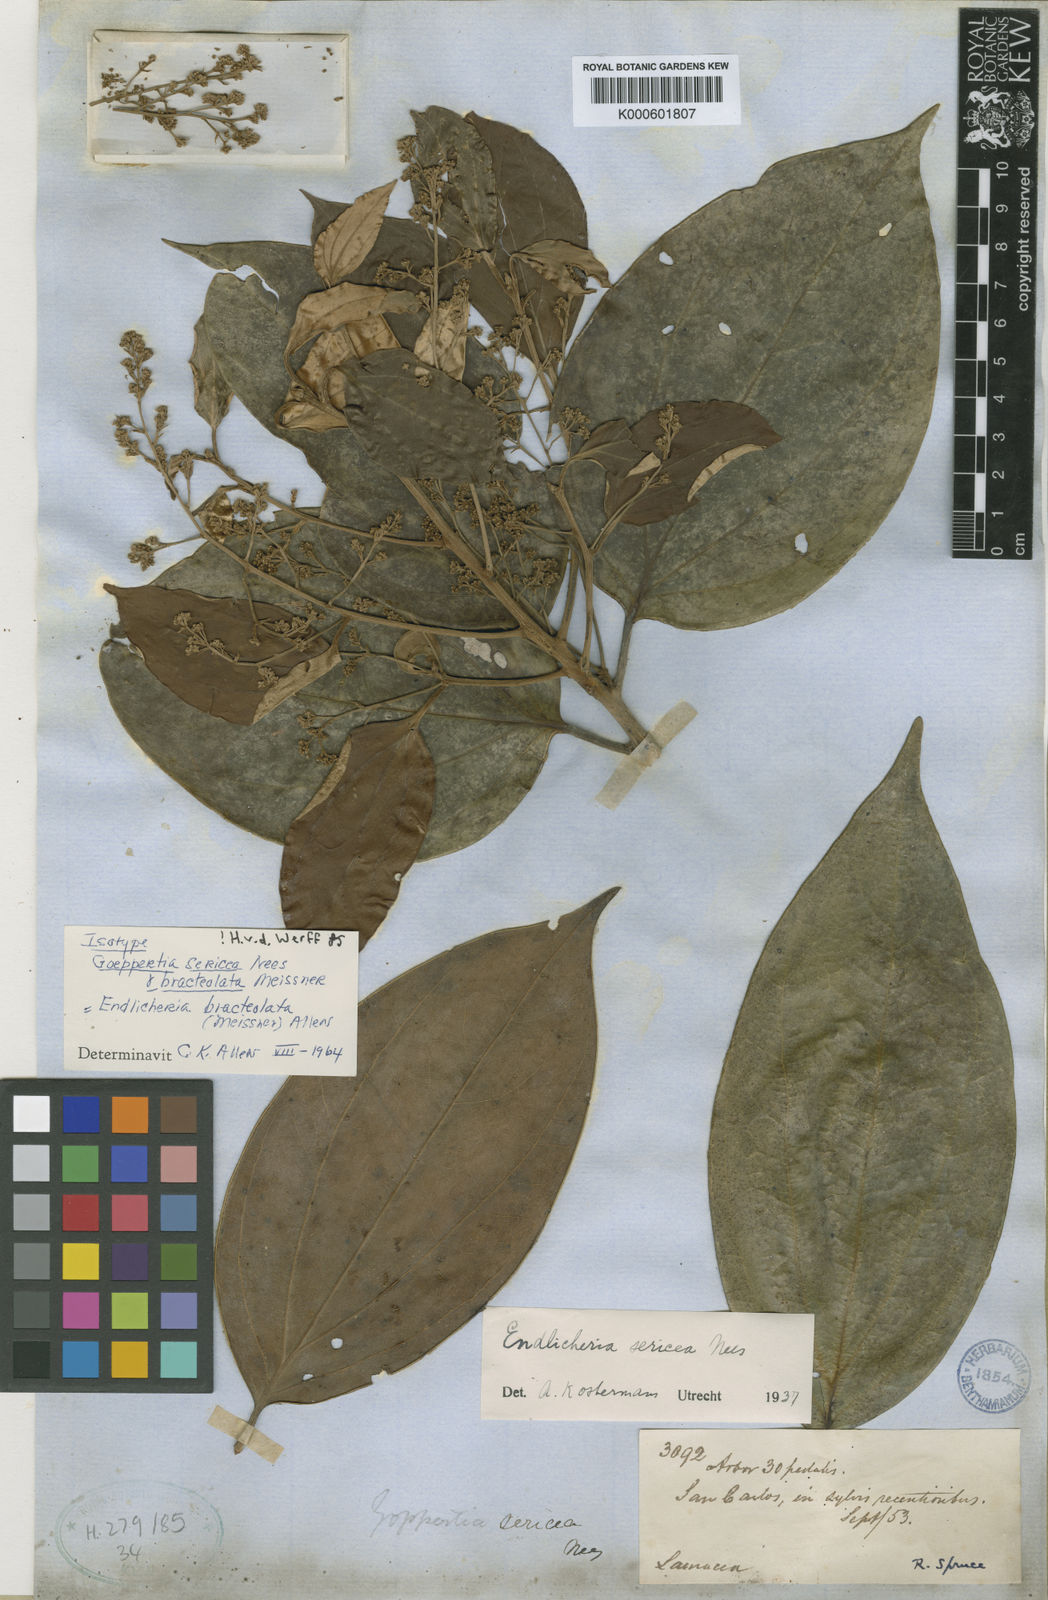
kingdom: Plantae
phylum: Tracheophyta
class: Magnoliopsida
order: Laurales
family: Lauraceae
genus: Endlicheria
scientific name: Endlicheria bracteolata
